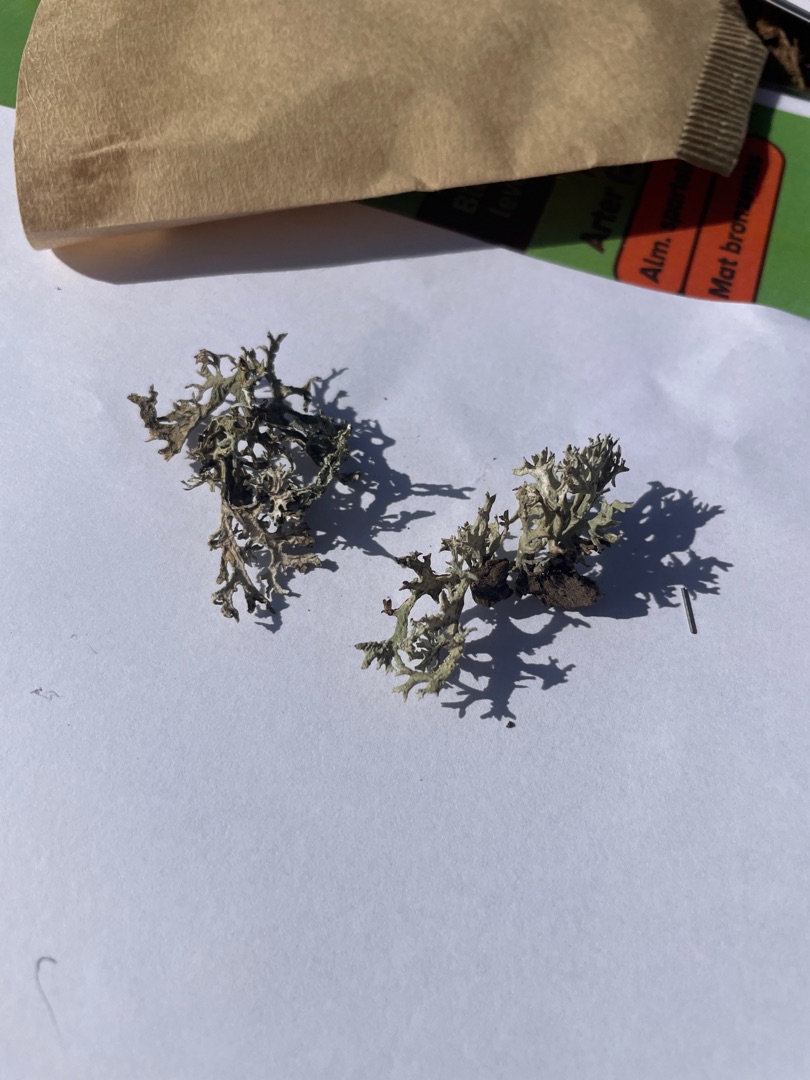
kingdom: Fungi
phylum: Ascomycota
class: Lecanoromycetes
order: Lecanorales
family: Parmeliaceae
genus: Evernia
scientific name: Evernia prunastri
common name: Almindelig slåenlav
